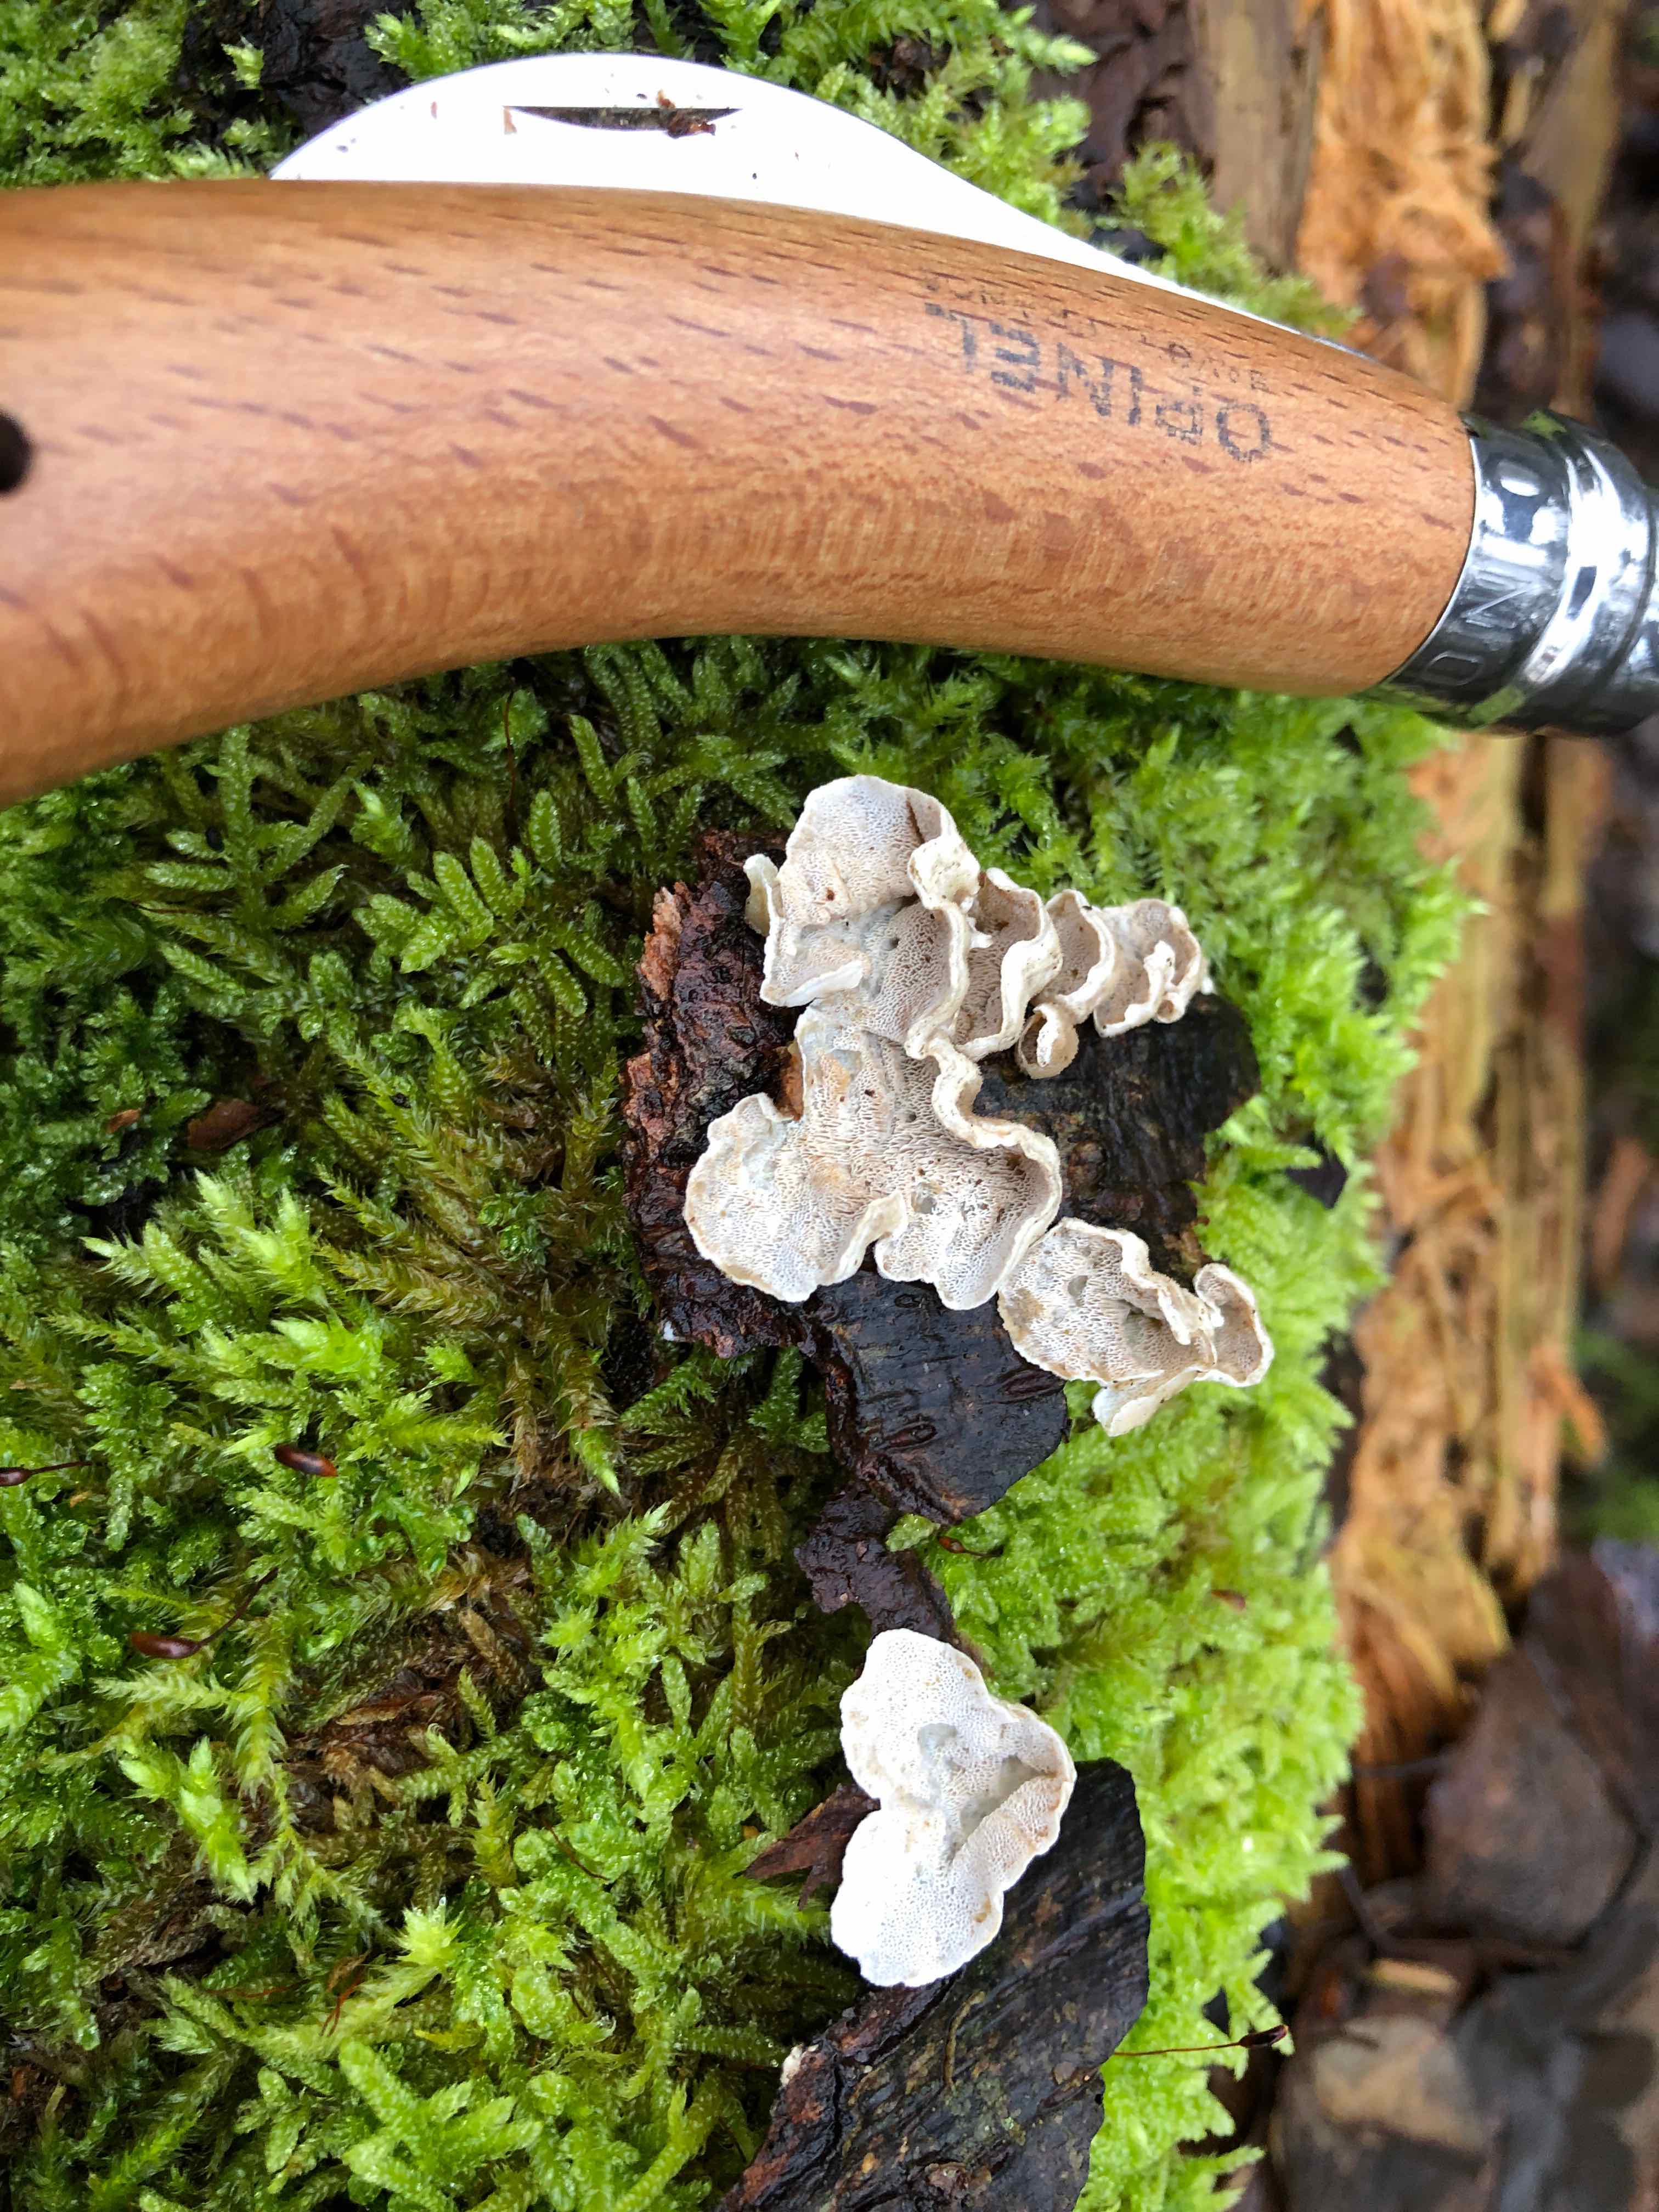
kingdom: Fungi
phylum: Basidiomycota
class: Agaricomycetes
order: Polyporales
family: Incrustoporiaceae
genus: Skeletocutis
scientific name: Skeletocutis carneogrisea
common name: rødgrå krystalporesvamp
